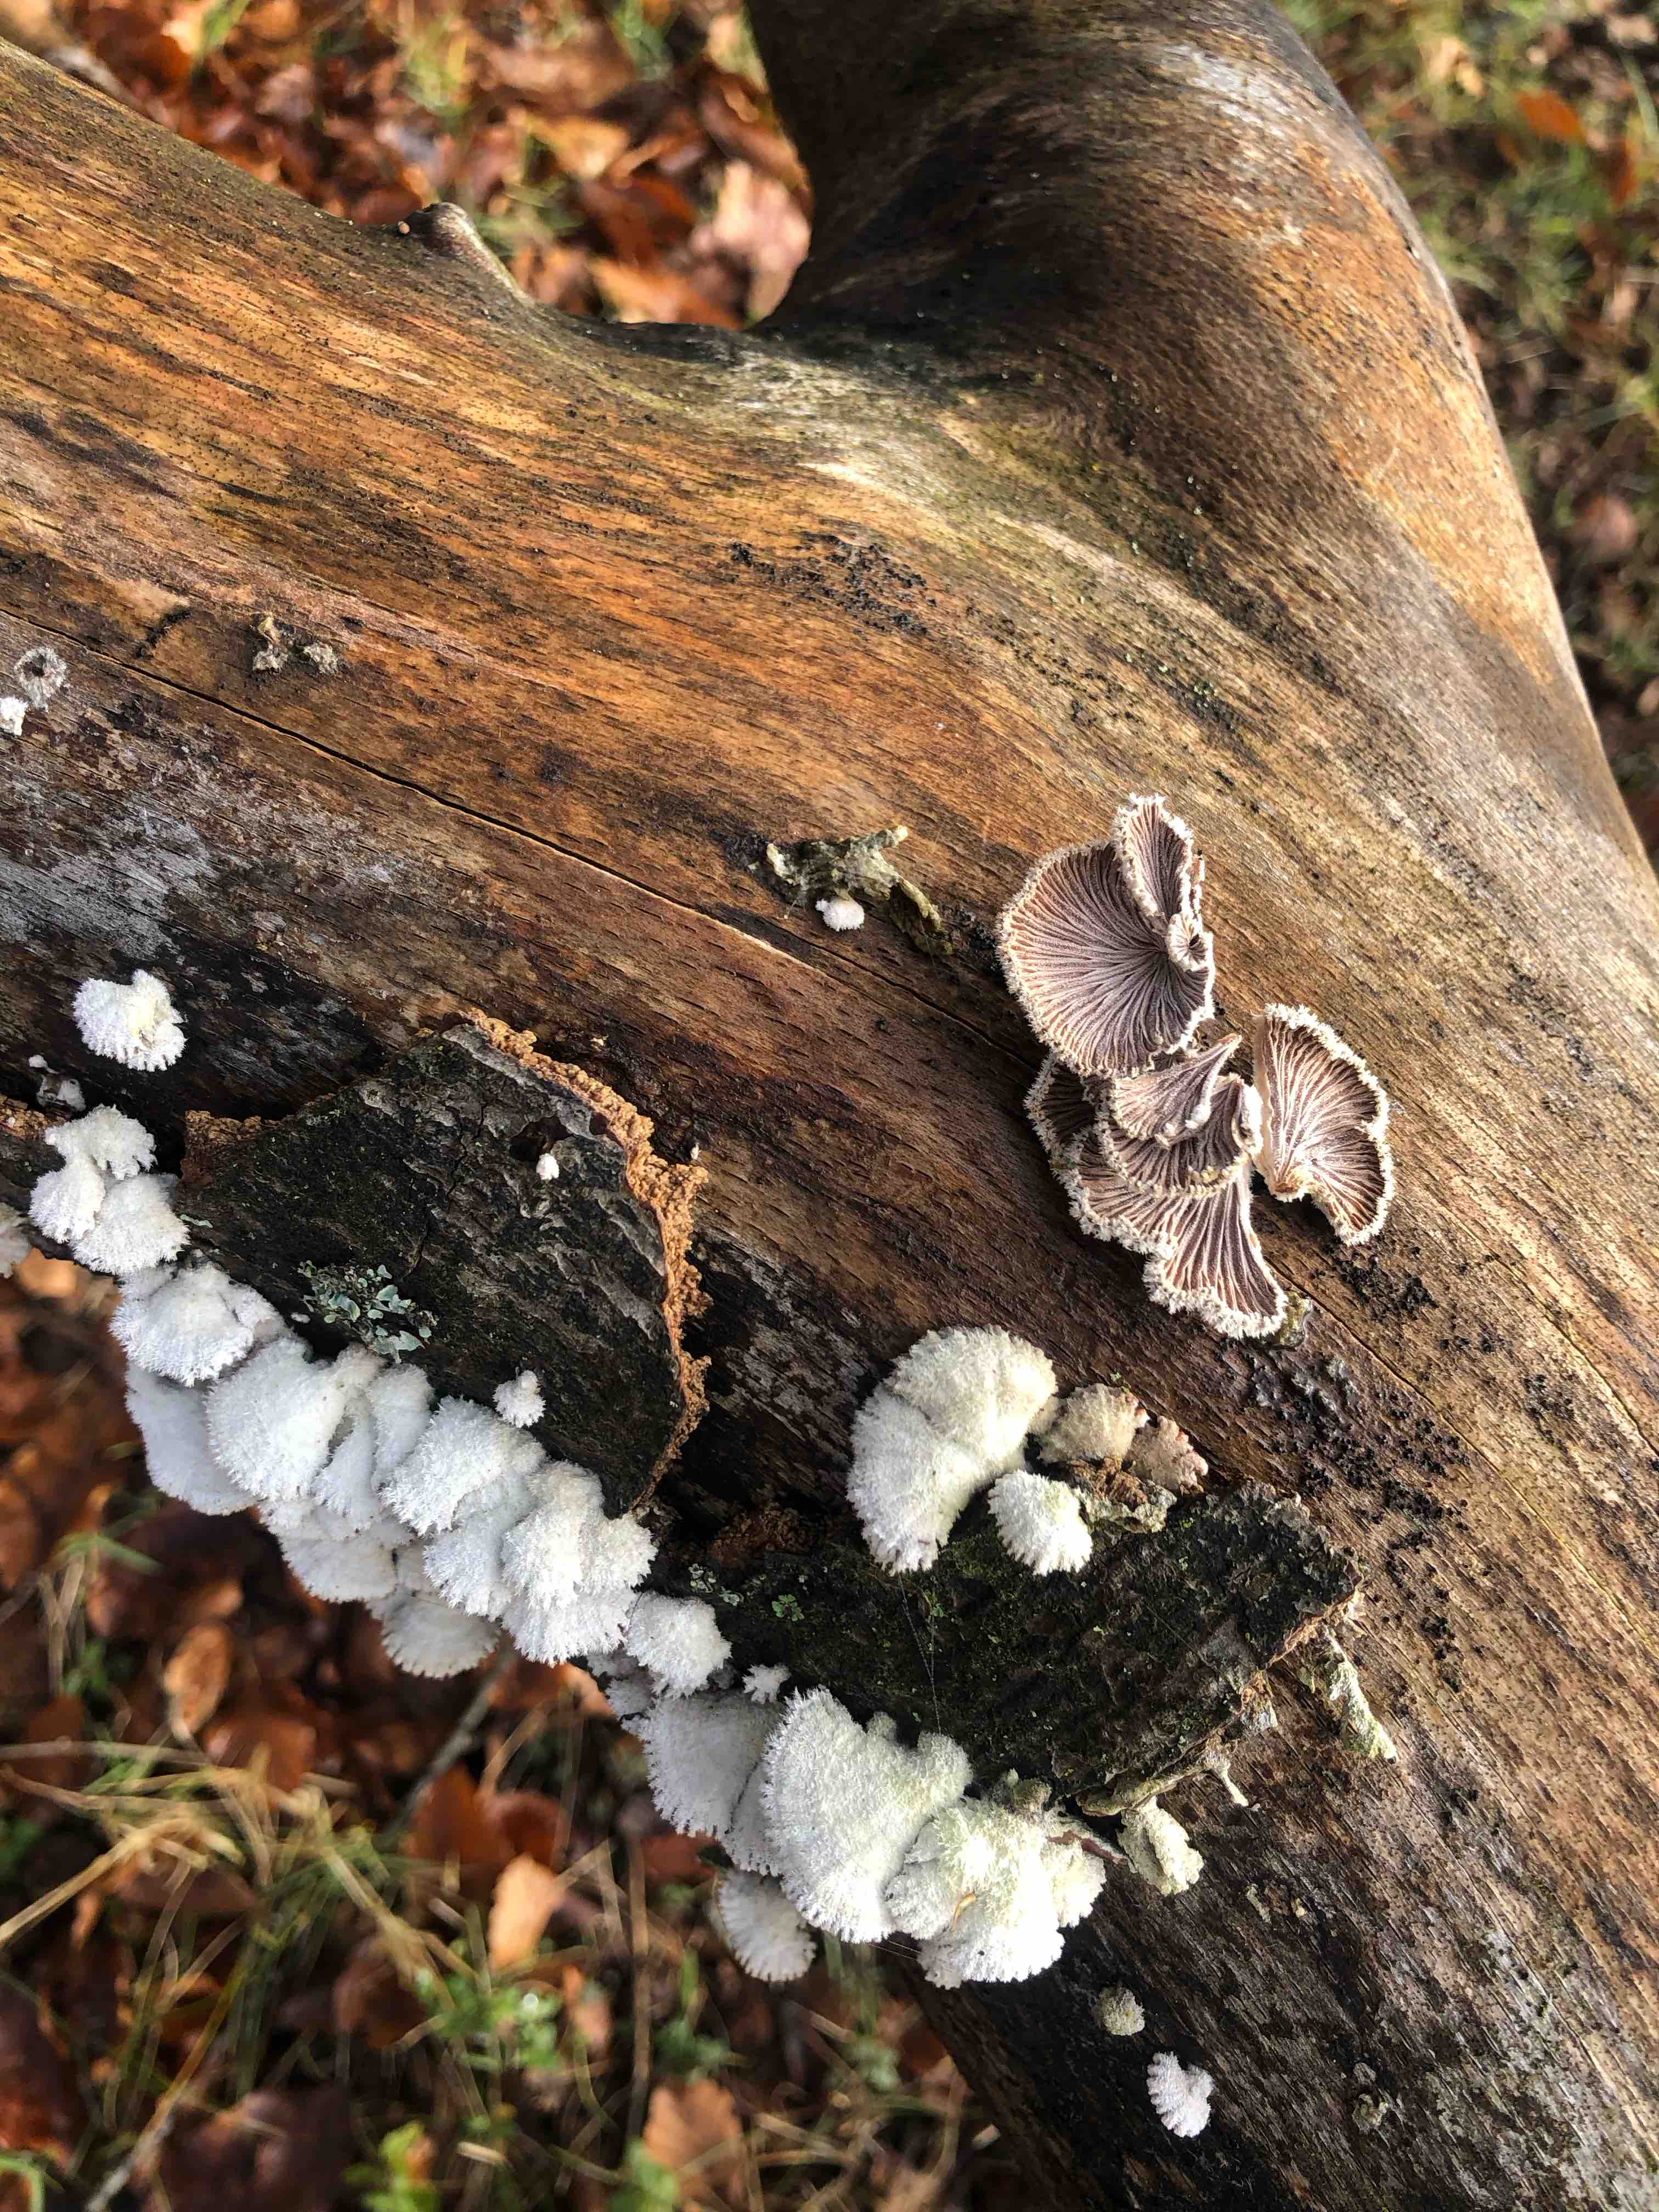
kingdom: Fungi
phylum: Basidiomycota
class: Agaricomycetes
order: Agaricales
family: Schizophyllaceae
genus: Schizophyllum
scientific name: Schizophyllum commune
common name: kløvblad
